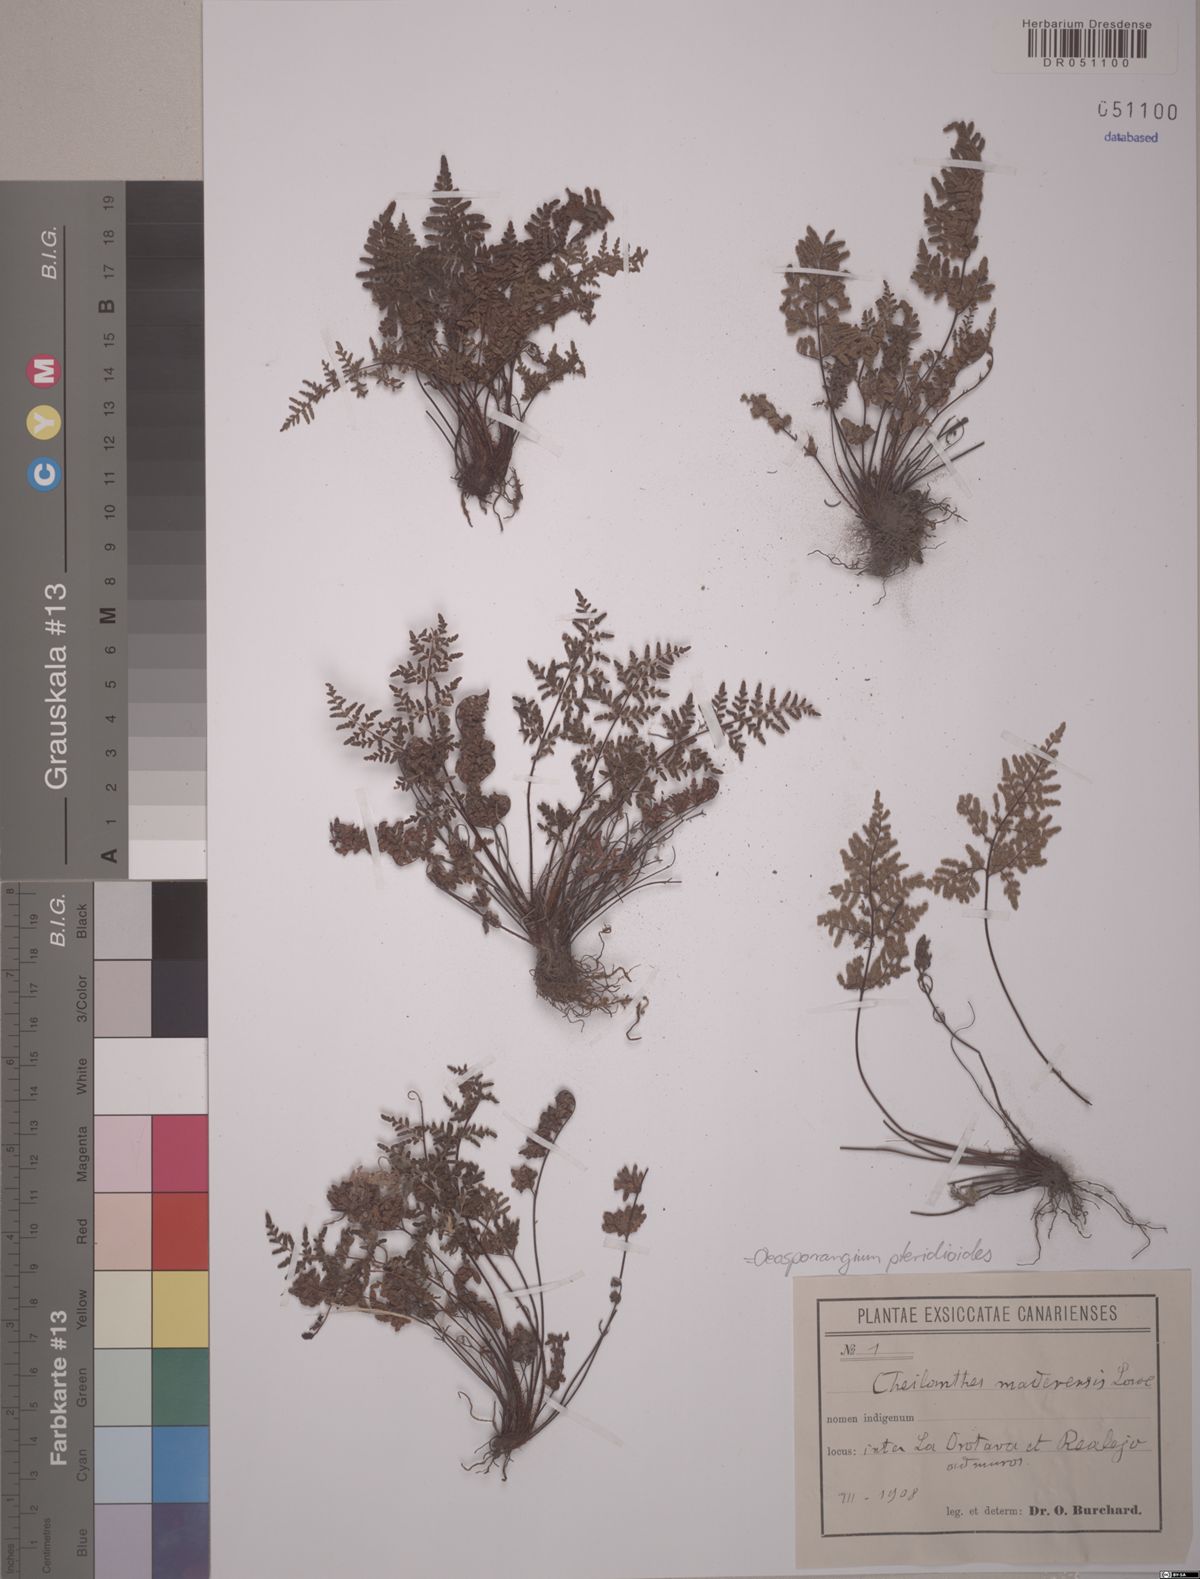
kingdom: Plantae
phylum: Tracheophyta
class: Polypodiopsida
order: Polypodiales
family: Pteridaceae
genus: Oeosporangium
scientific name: Oeosporangium pteridioides
